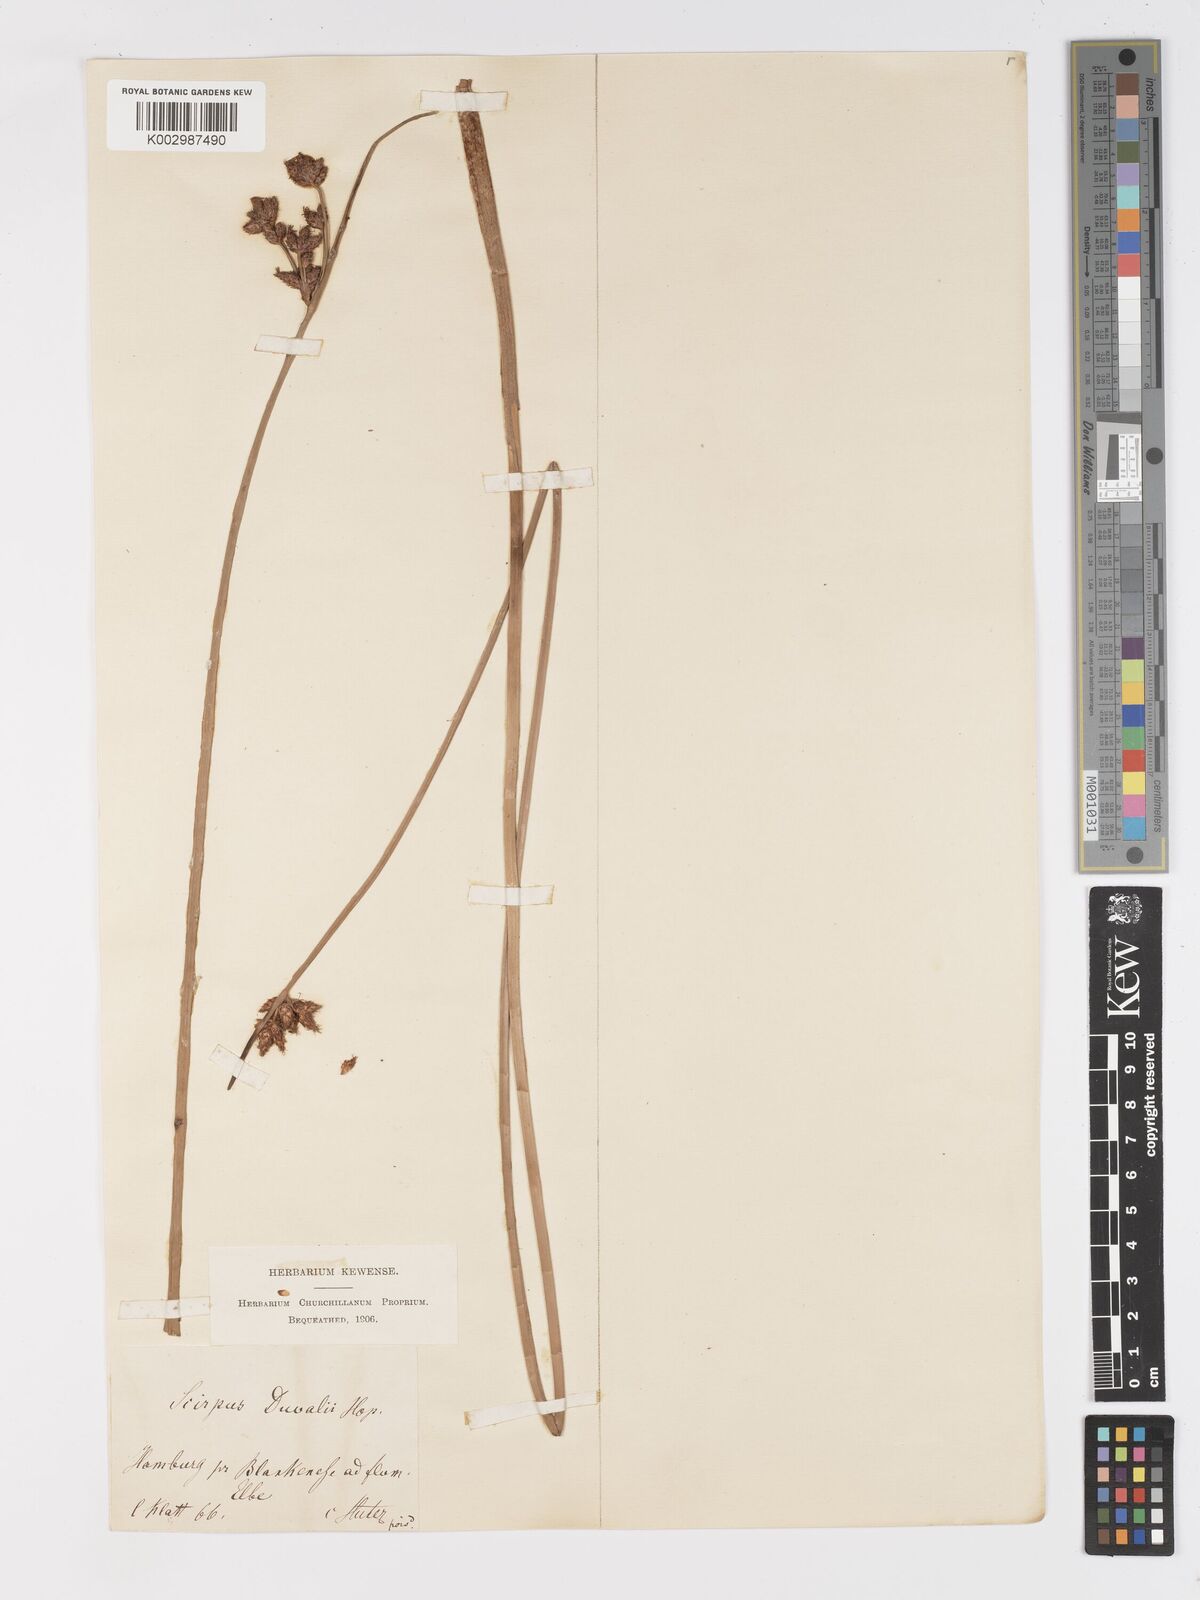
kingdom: Plantae
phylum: Tracheophyta
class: Liliopsida
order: Poales
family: Cyperaceae
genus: Schoenoplectus
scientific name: Schoenoplectus lacustris
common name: Common club-rush
